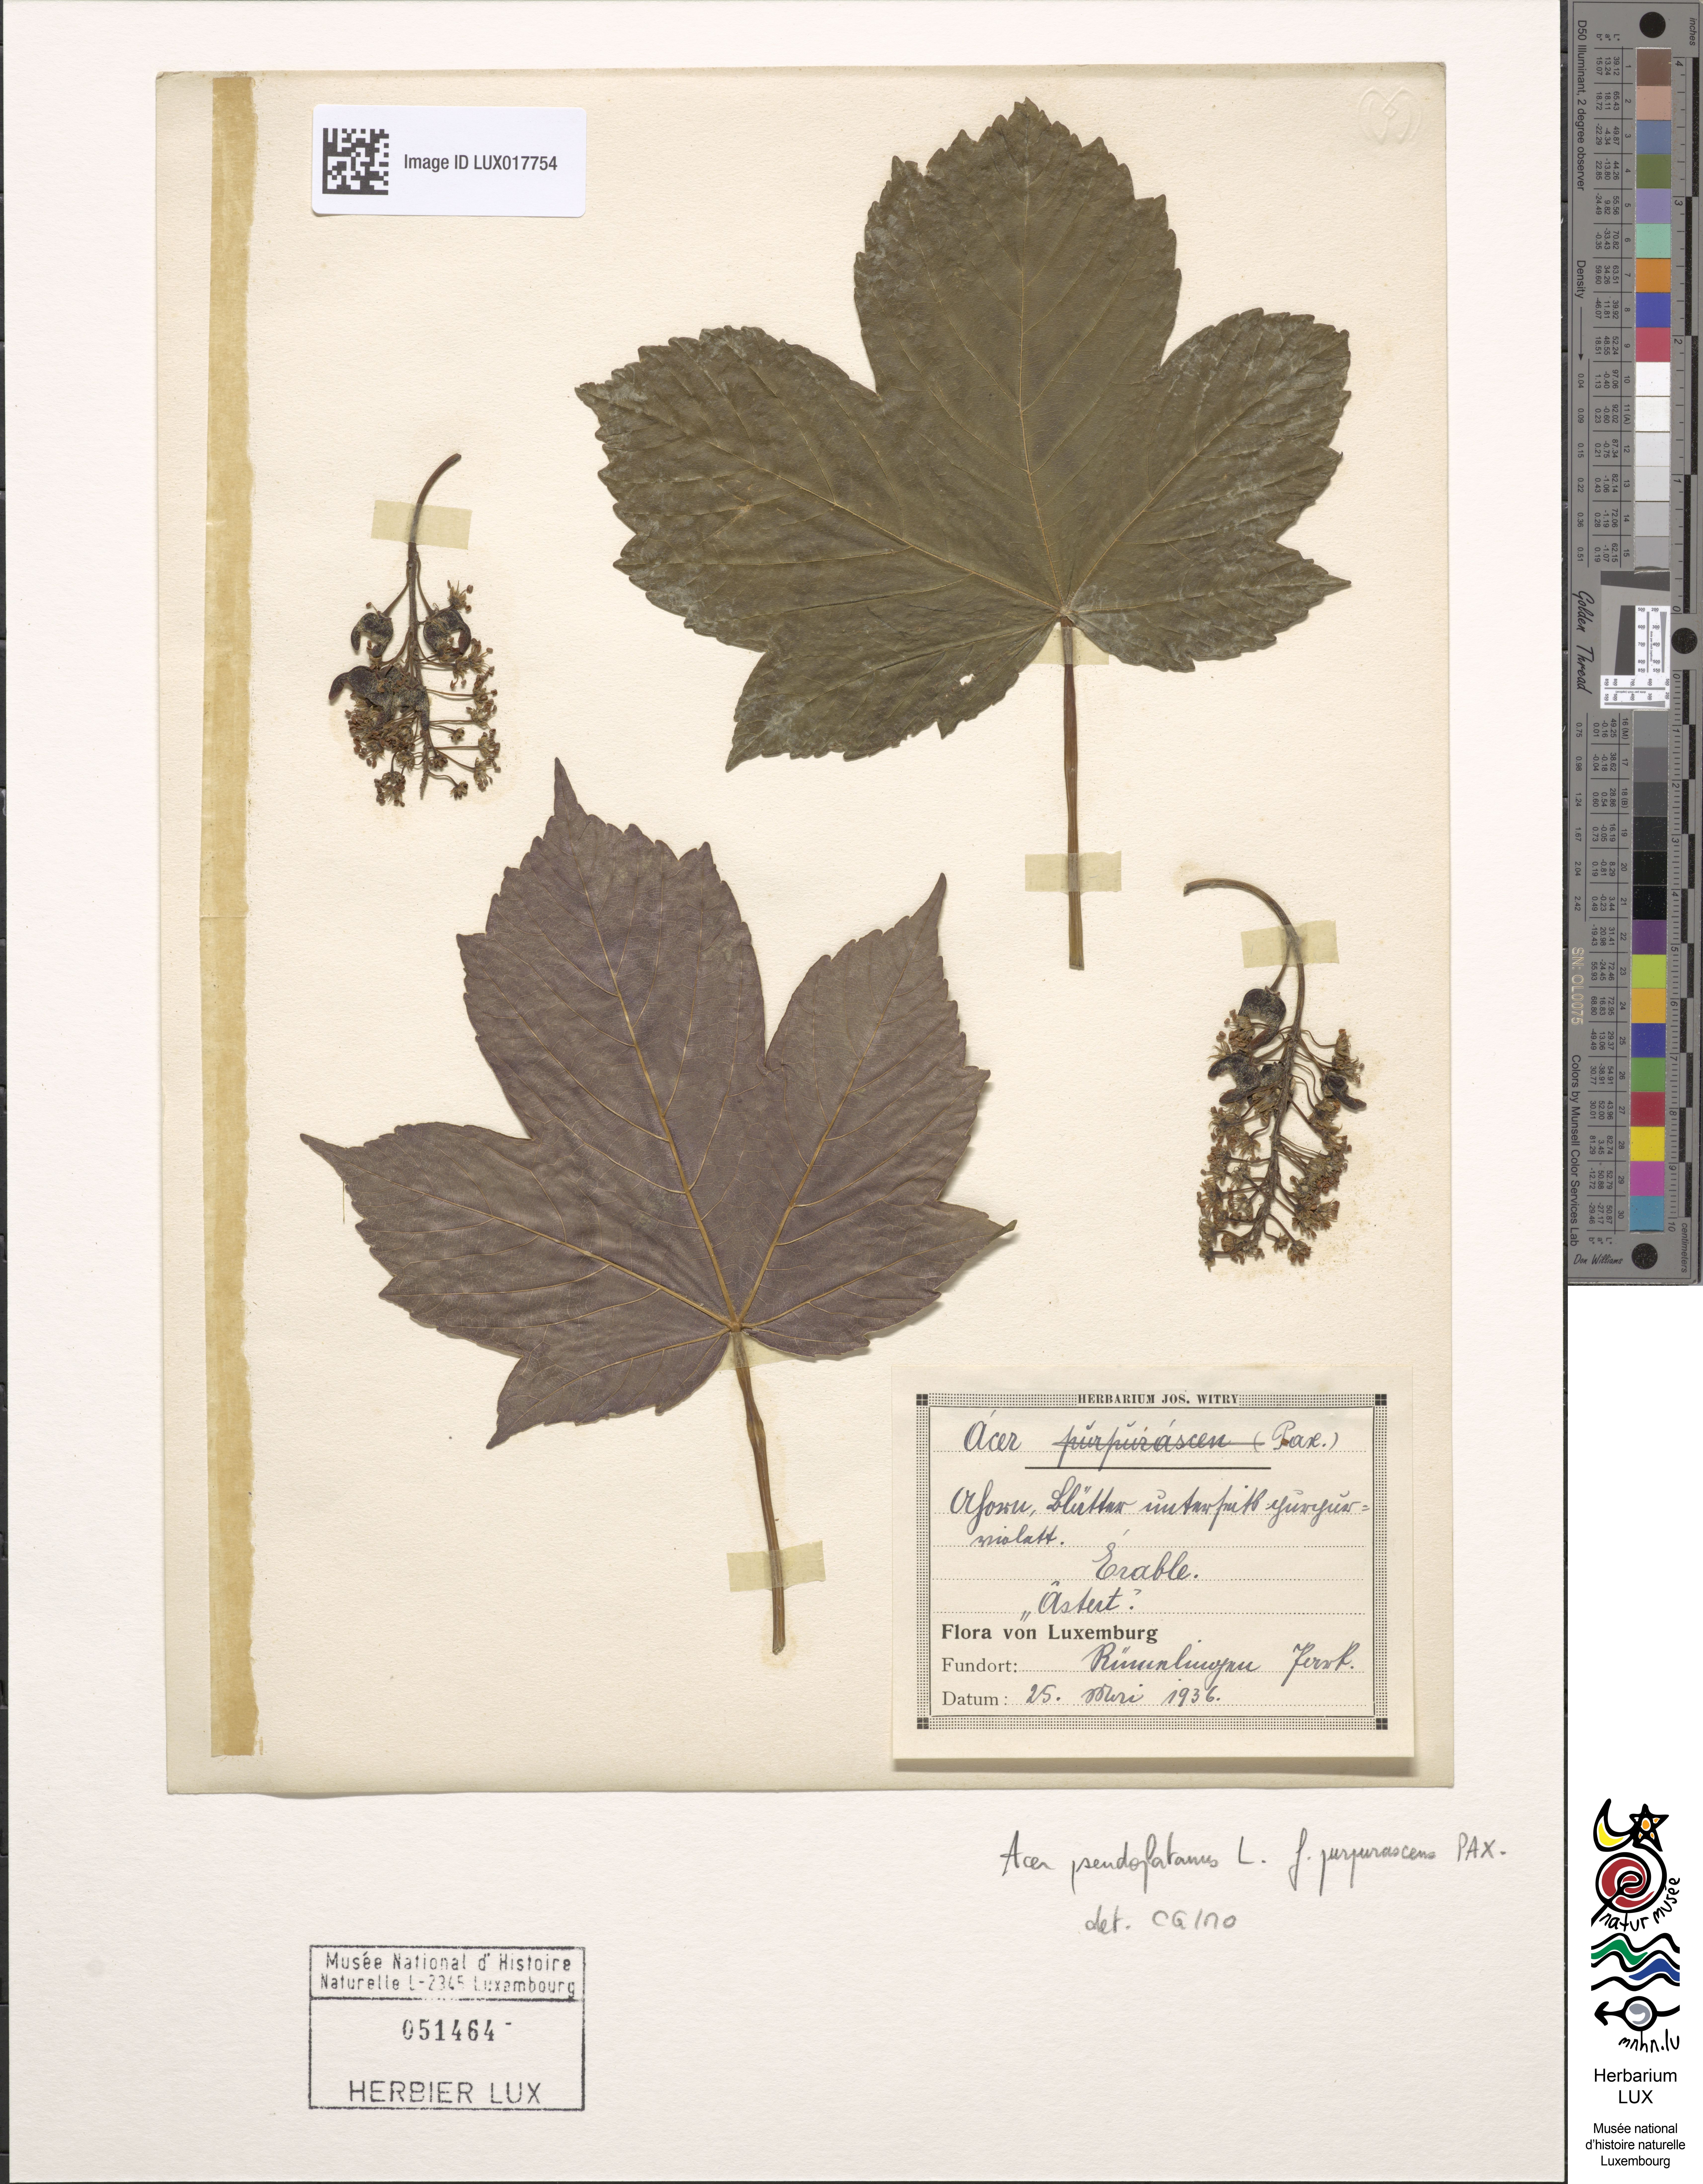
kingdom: Plantae
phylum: Tracheophyta
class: Magnoliopsida
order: Sapindales
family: Sapindaceae
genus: Acer
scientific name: Acer pseudoplatanus
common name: Sycamore
